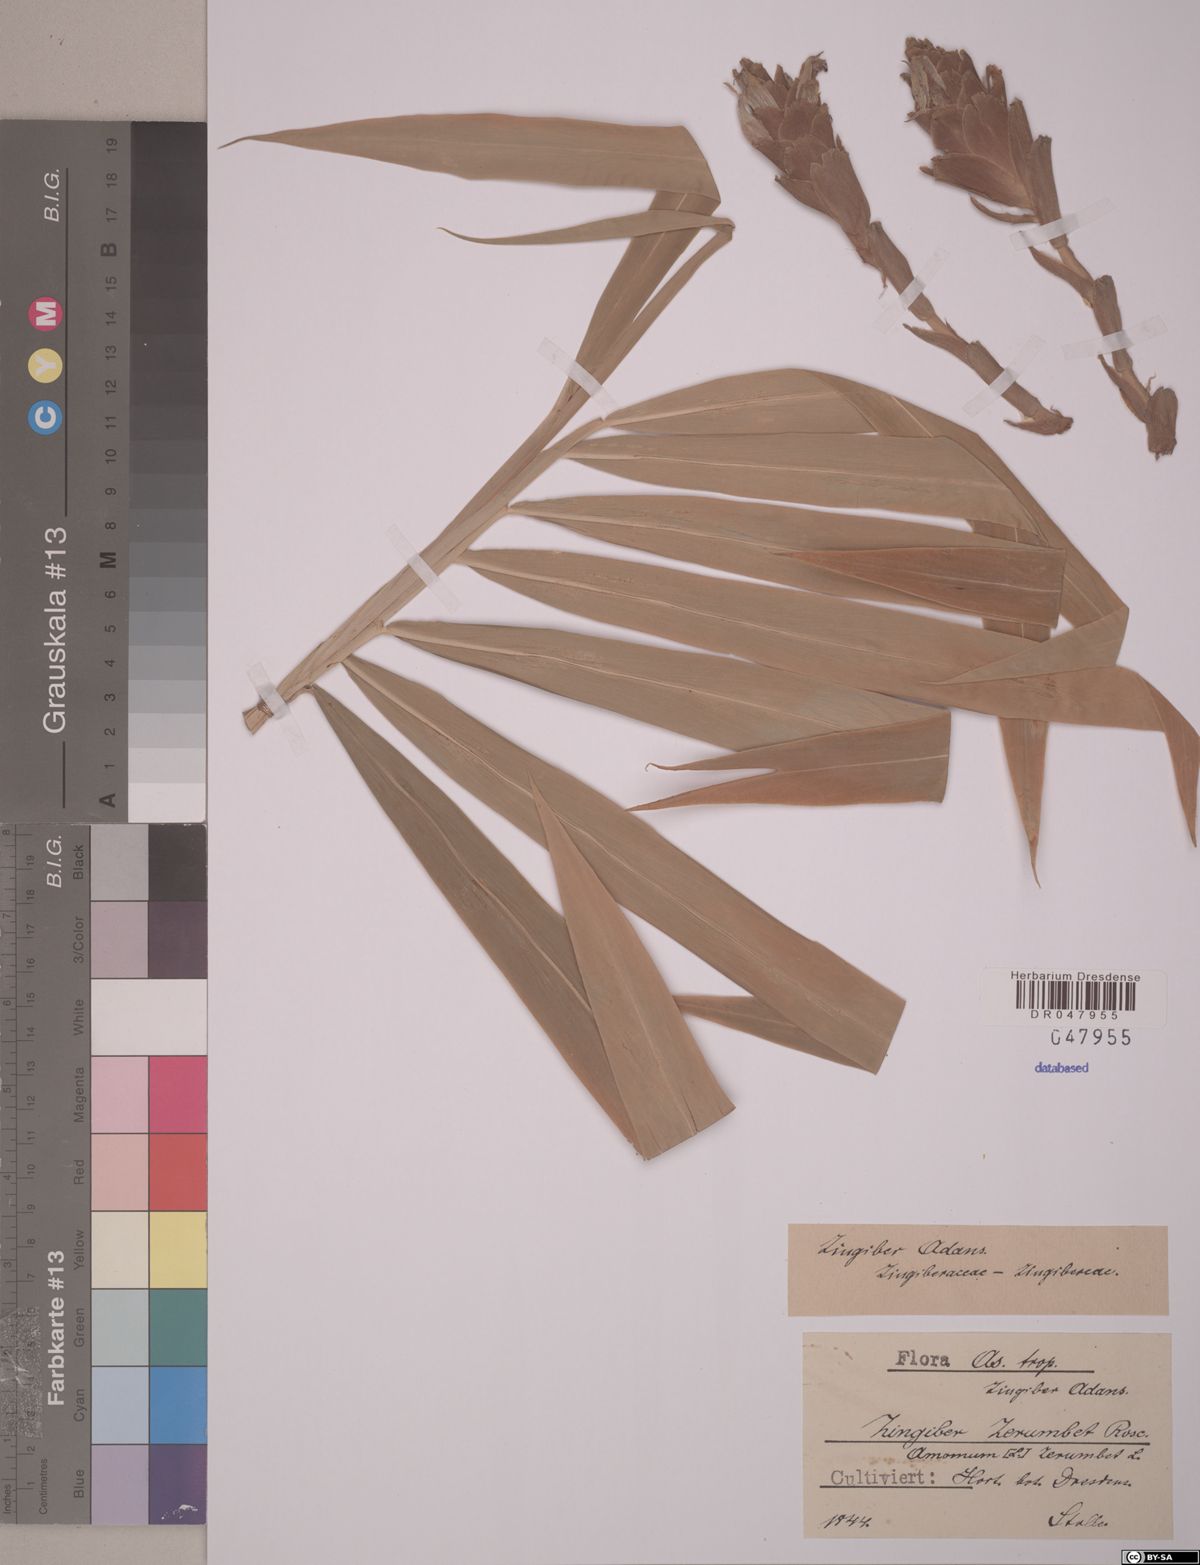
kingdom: Plantae
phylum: Tracheophyta
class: Liliopsida
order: Zingiberales
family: Zingiberaceae
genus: Zingiber
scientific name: Zingiber zerumbet
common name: Bitter ginger
